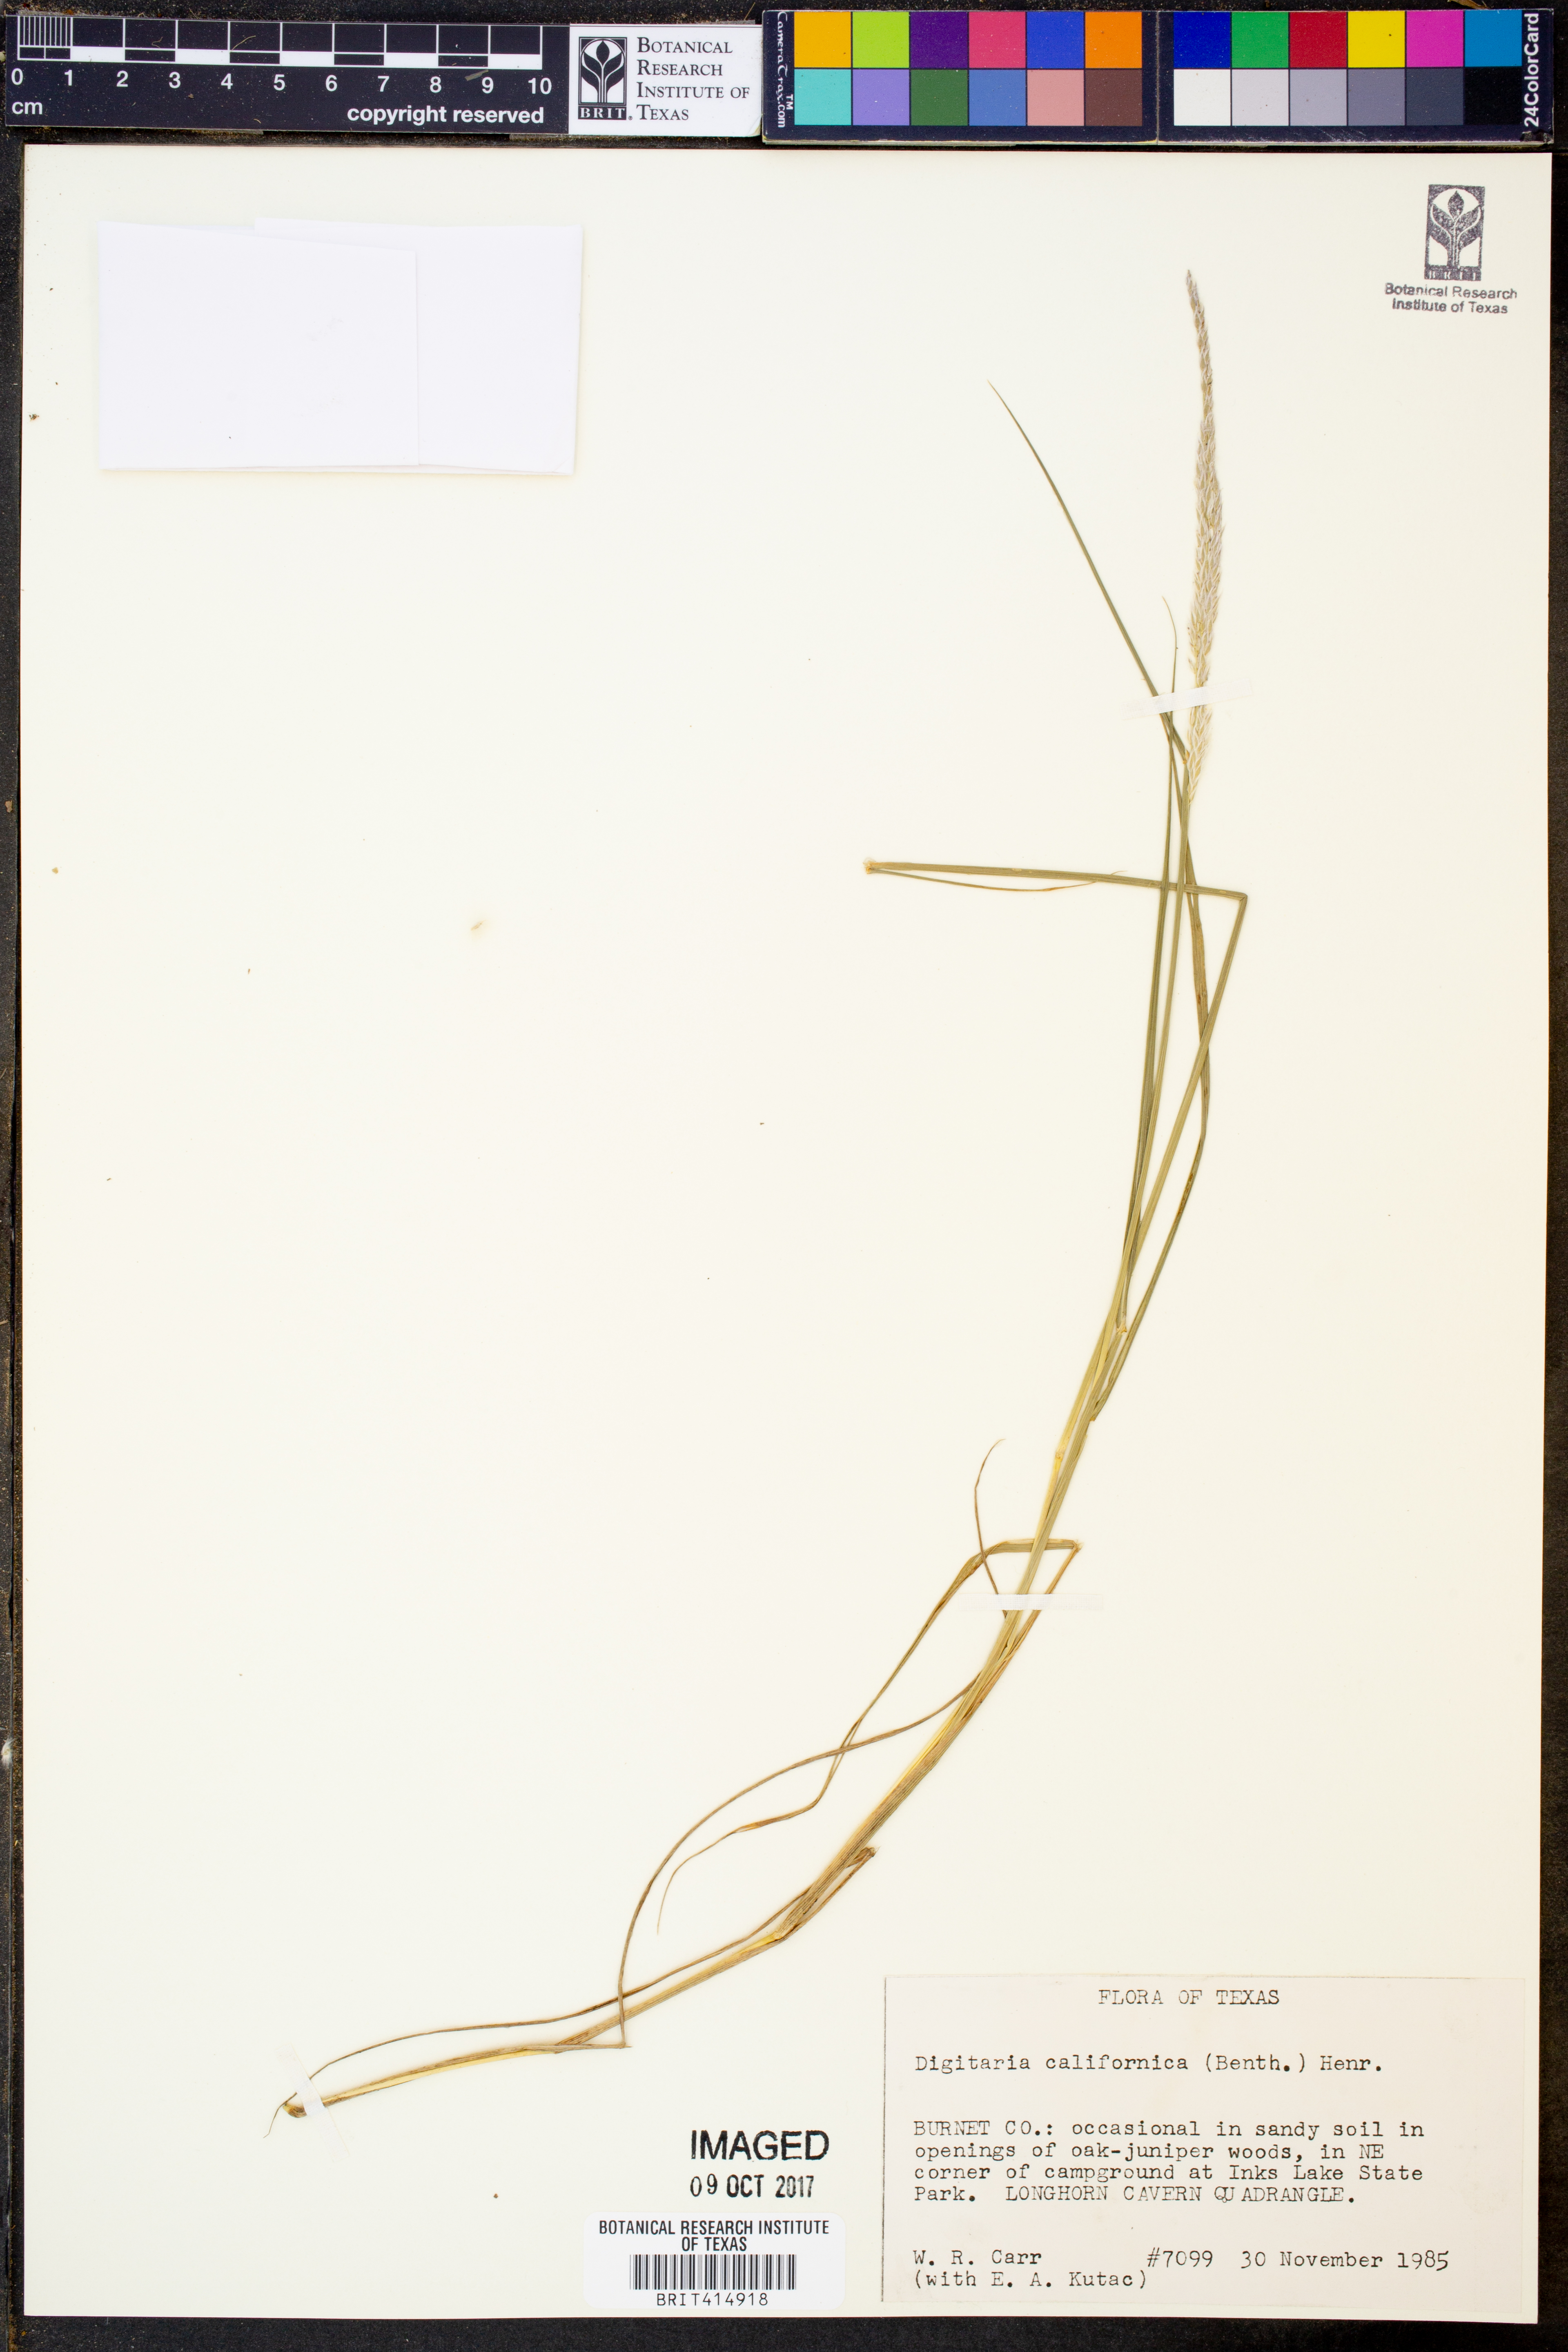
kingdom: Plantae
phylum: Tracheophyta
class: Liliopsida
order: Poales
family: Poaceae
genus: Digitaria
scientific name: Digitaria californica
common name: Arizona cottontop
